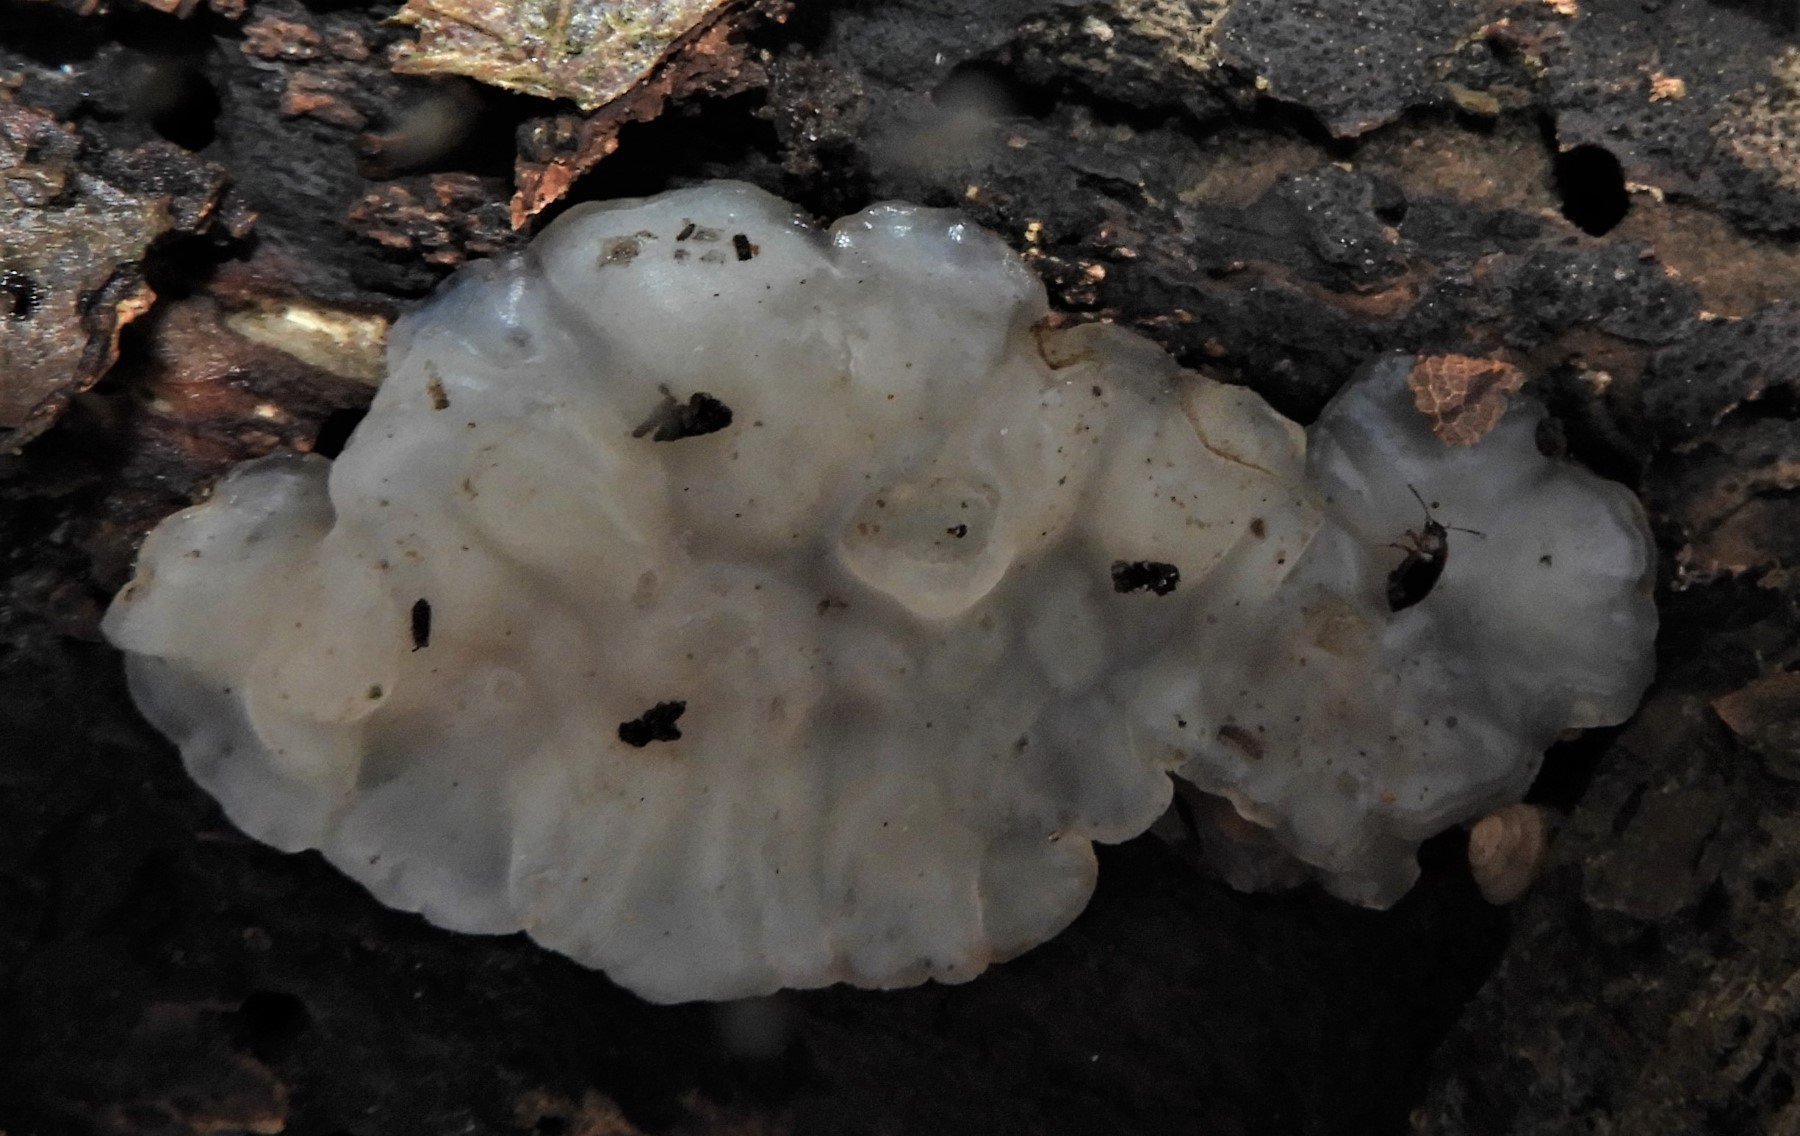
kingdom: Fungi
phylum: Basidiomycota
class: Agaricomycetes
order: Auriculariales
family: Auriculariaceae
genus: Exidia
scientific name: Exidia thuretiana
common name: hvidlig bævretop
